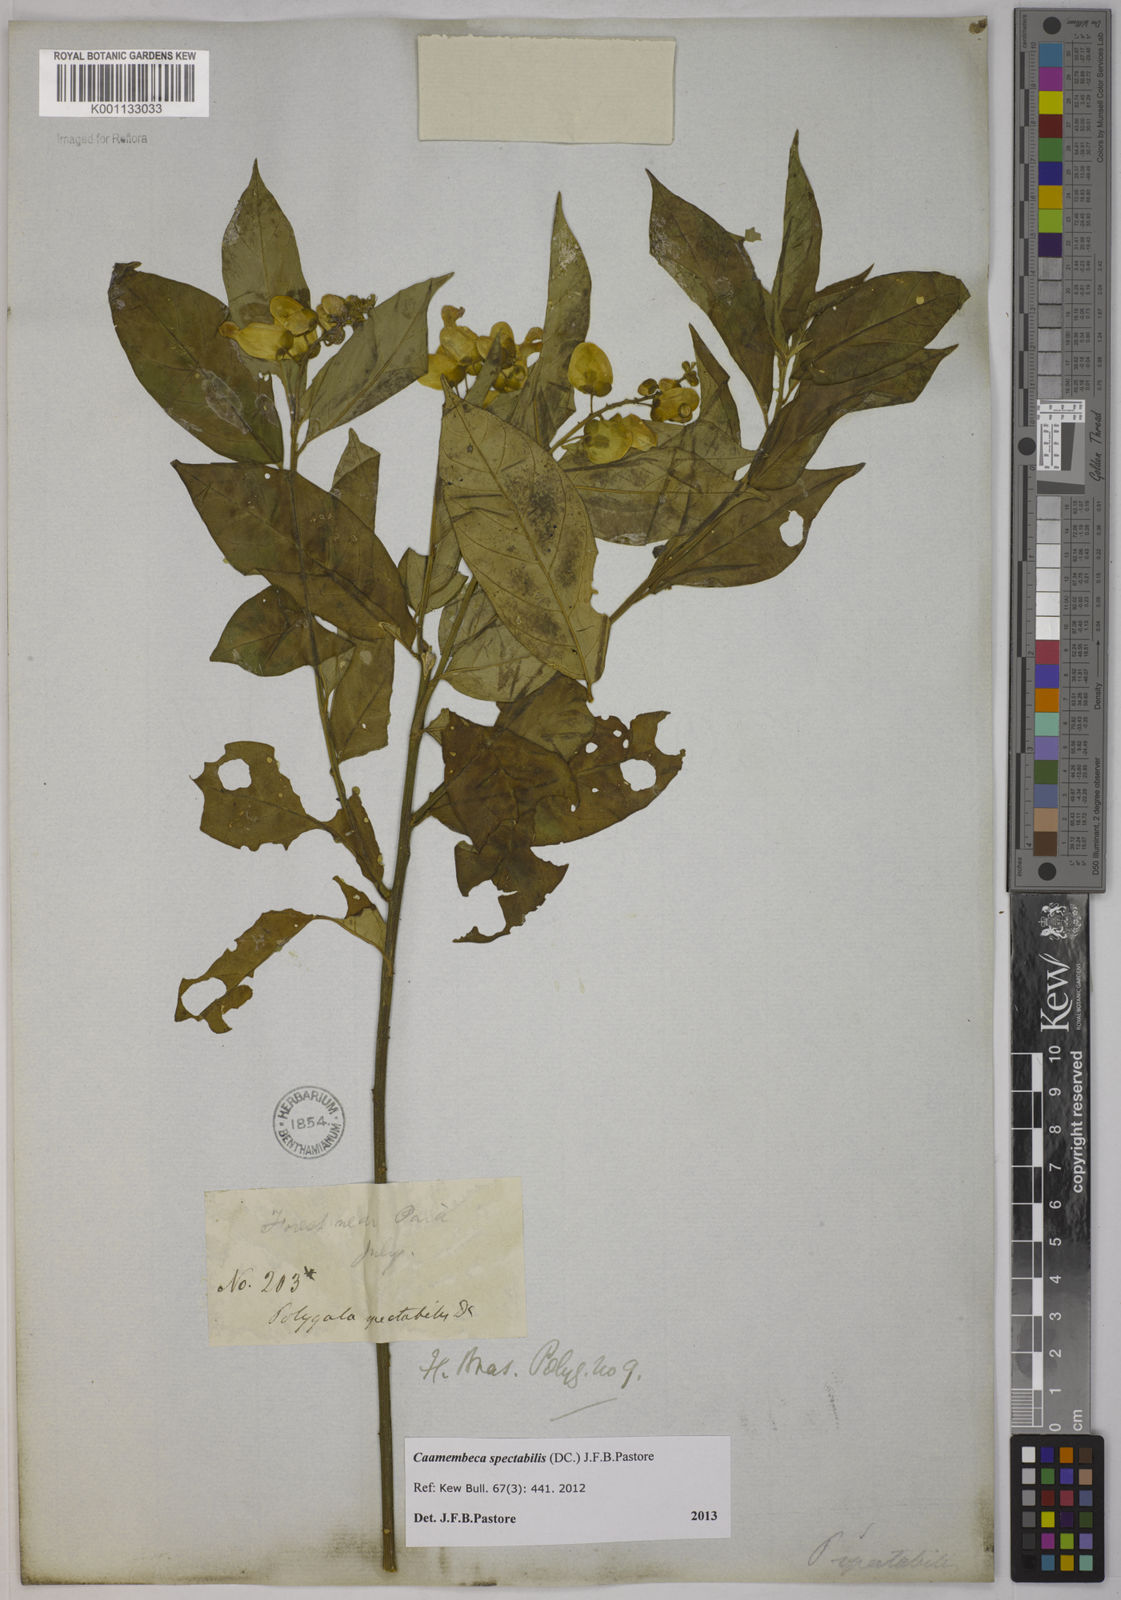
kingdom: Plantae
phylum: Tracheophyta
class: Magnoliopsida
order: Fabales
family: Polygalaceae
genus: Caamembeca
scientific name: Caamembeca spectabilis
